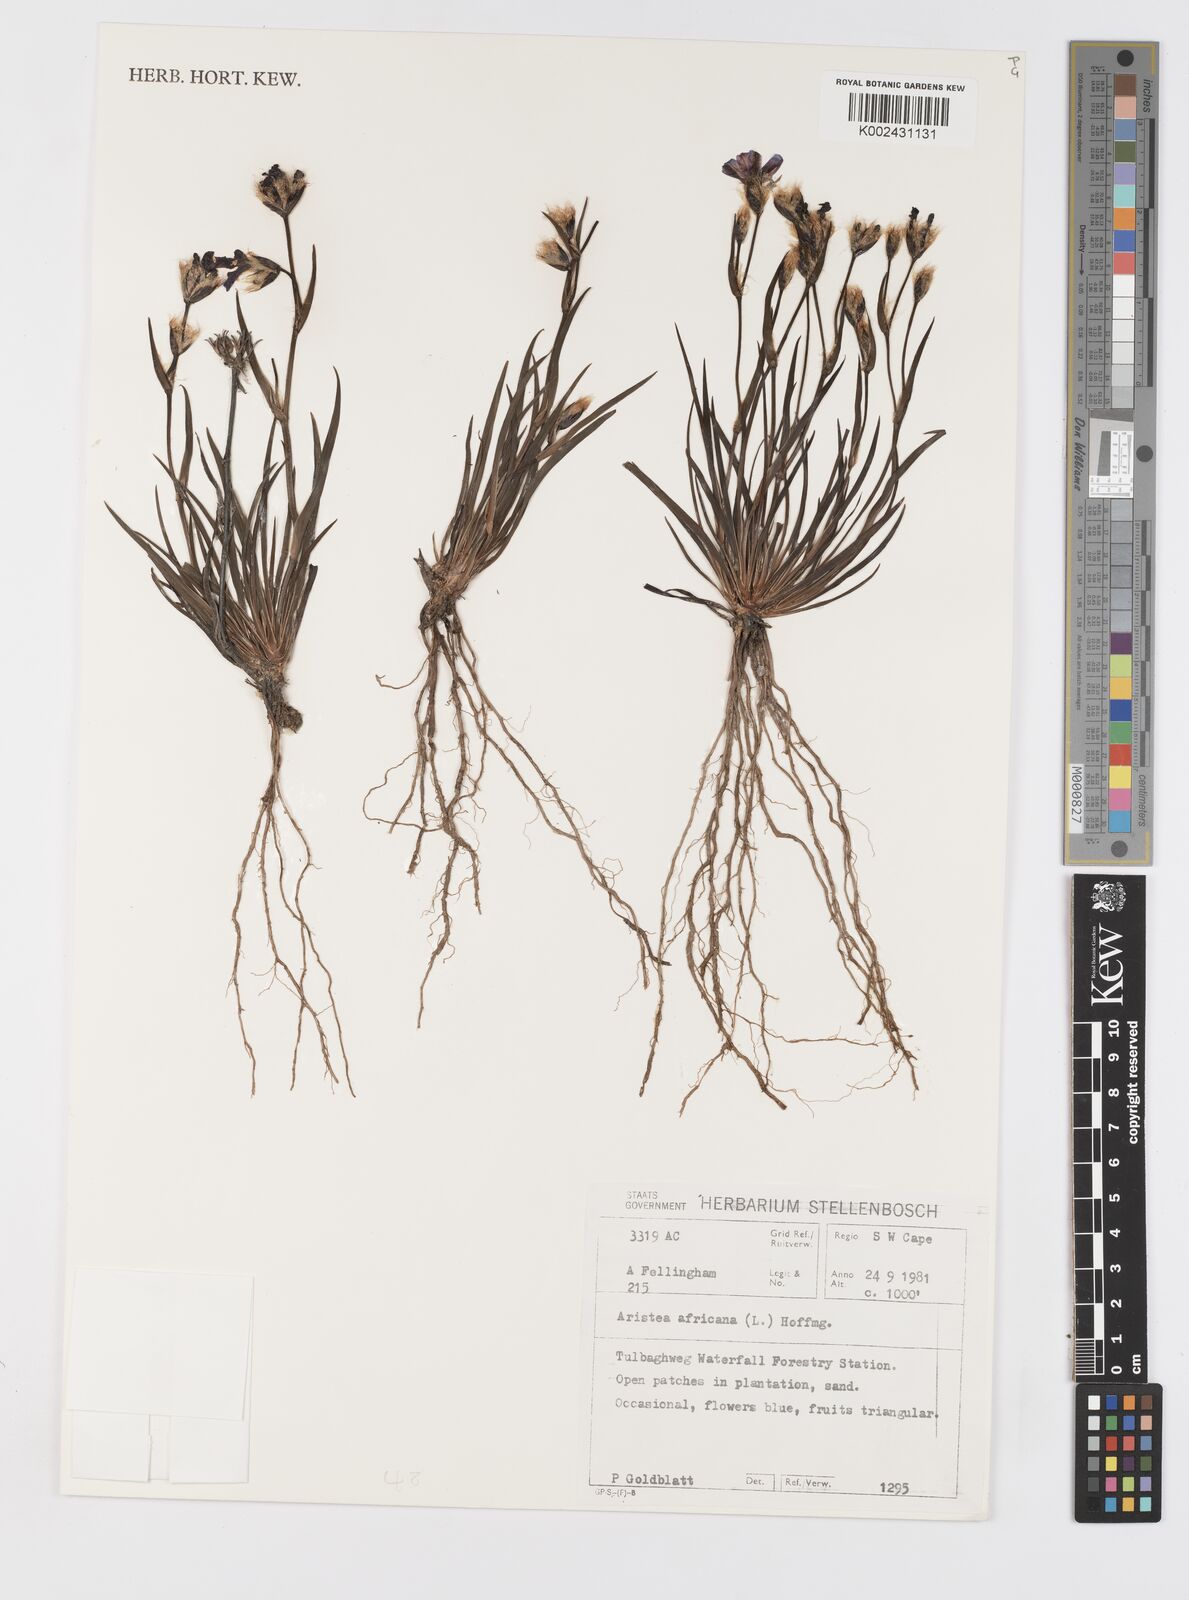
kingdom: Plantae
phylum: Tracheophyta
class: Liliopsida
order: Asparagales
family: Iridaceae
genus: Aristea
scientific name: Aristea africana
